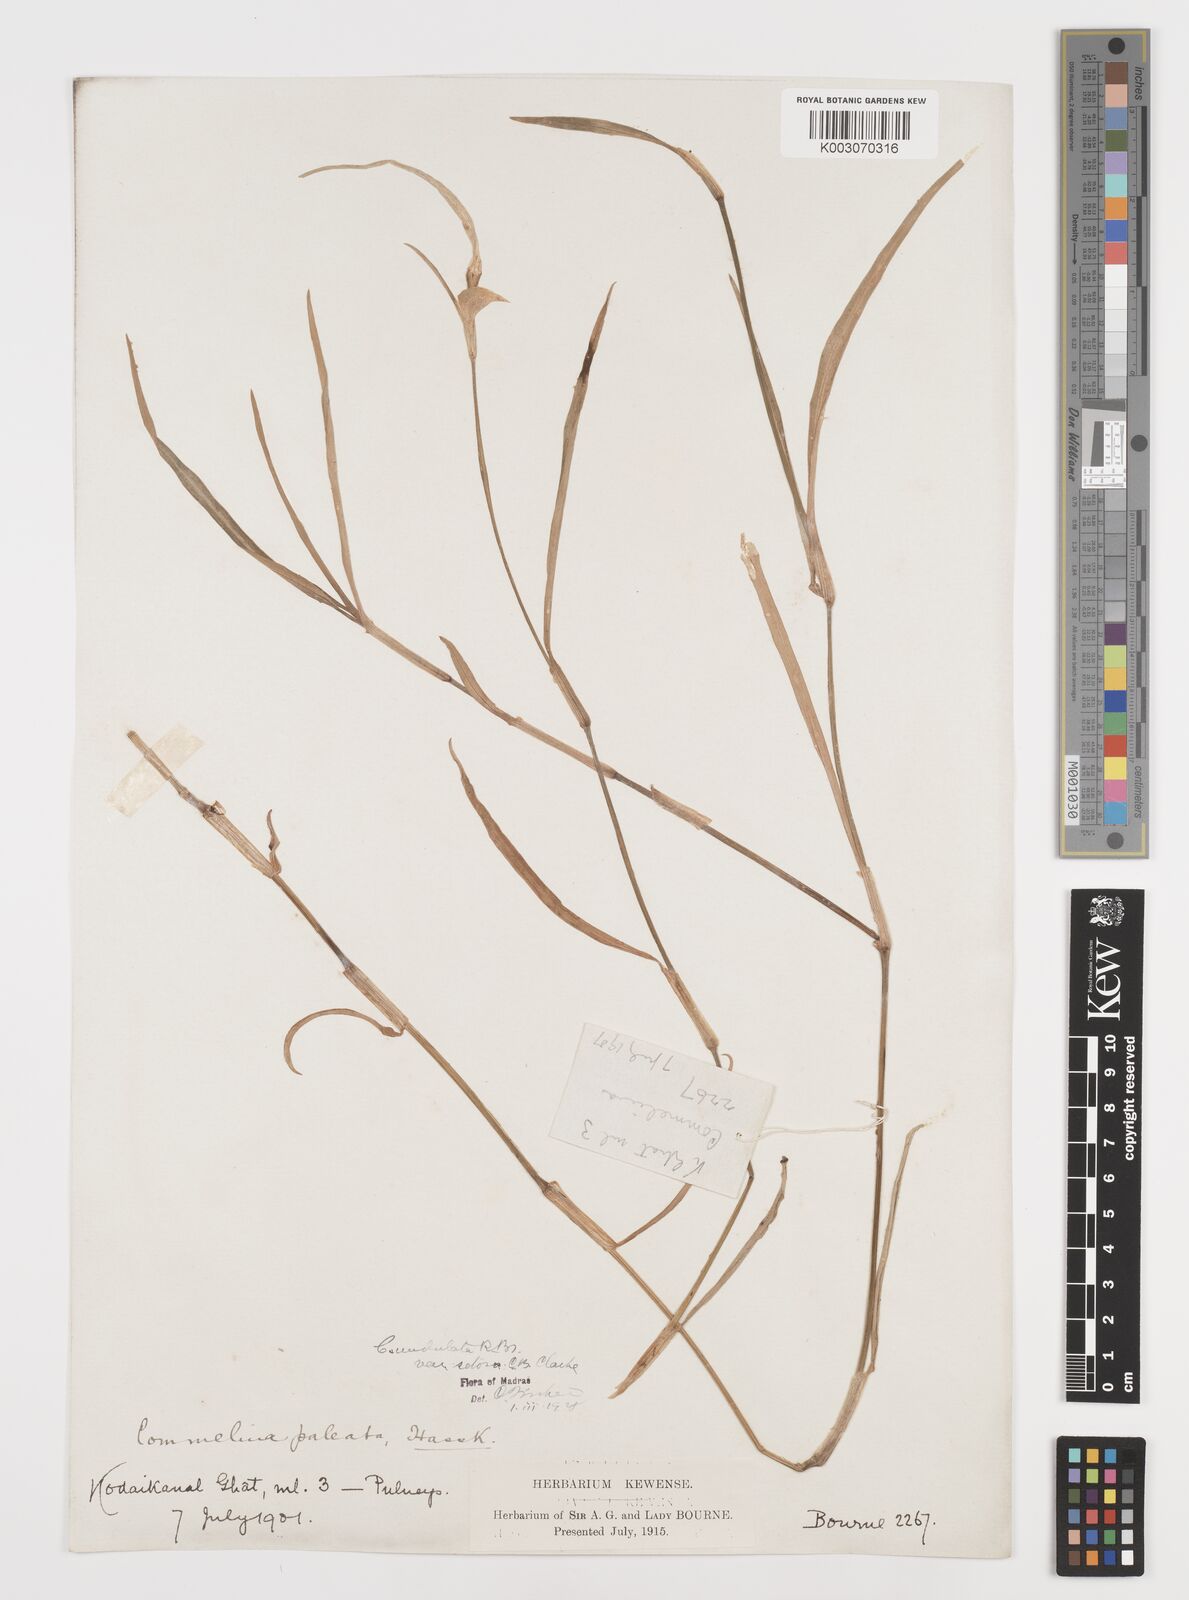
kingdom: Plantae
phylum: Tracheophyta
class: Liliopsida
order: Commelinales
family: Commelinaceae
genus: Commelina
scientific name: Commelina chamissonis
